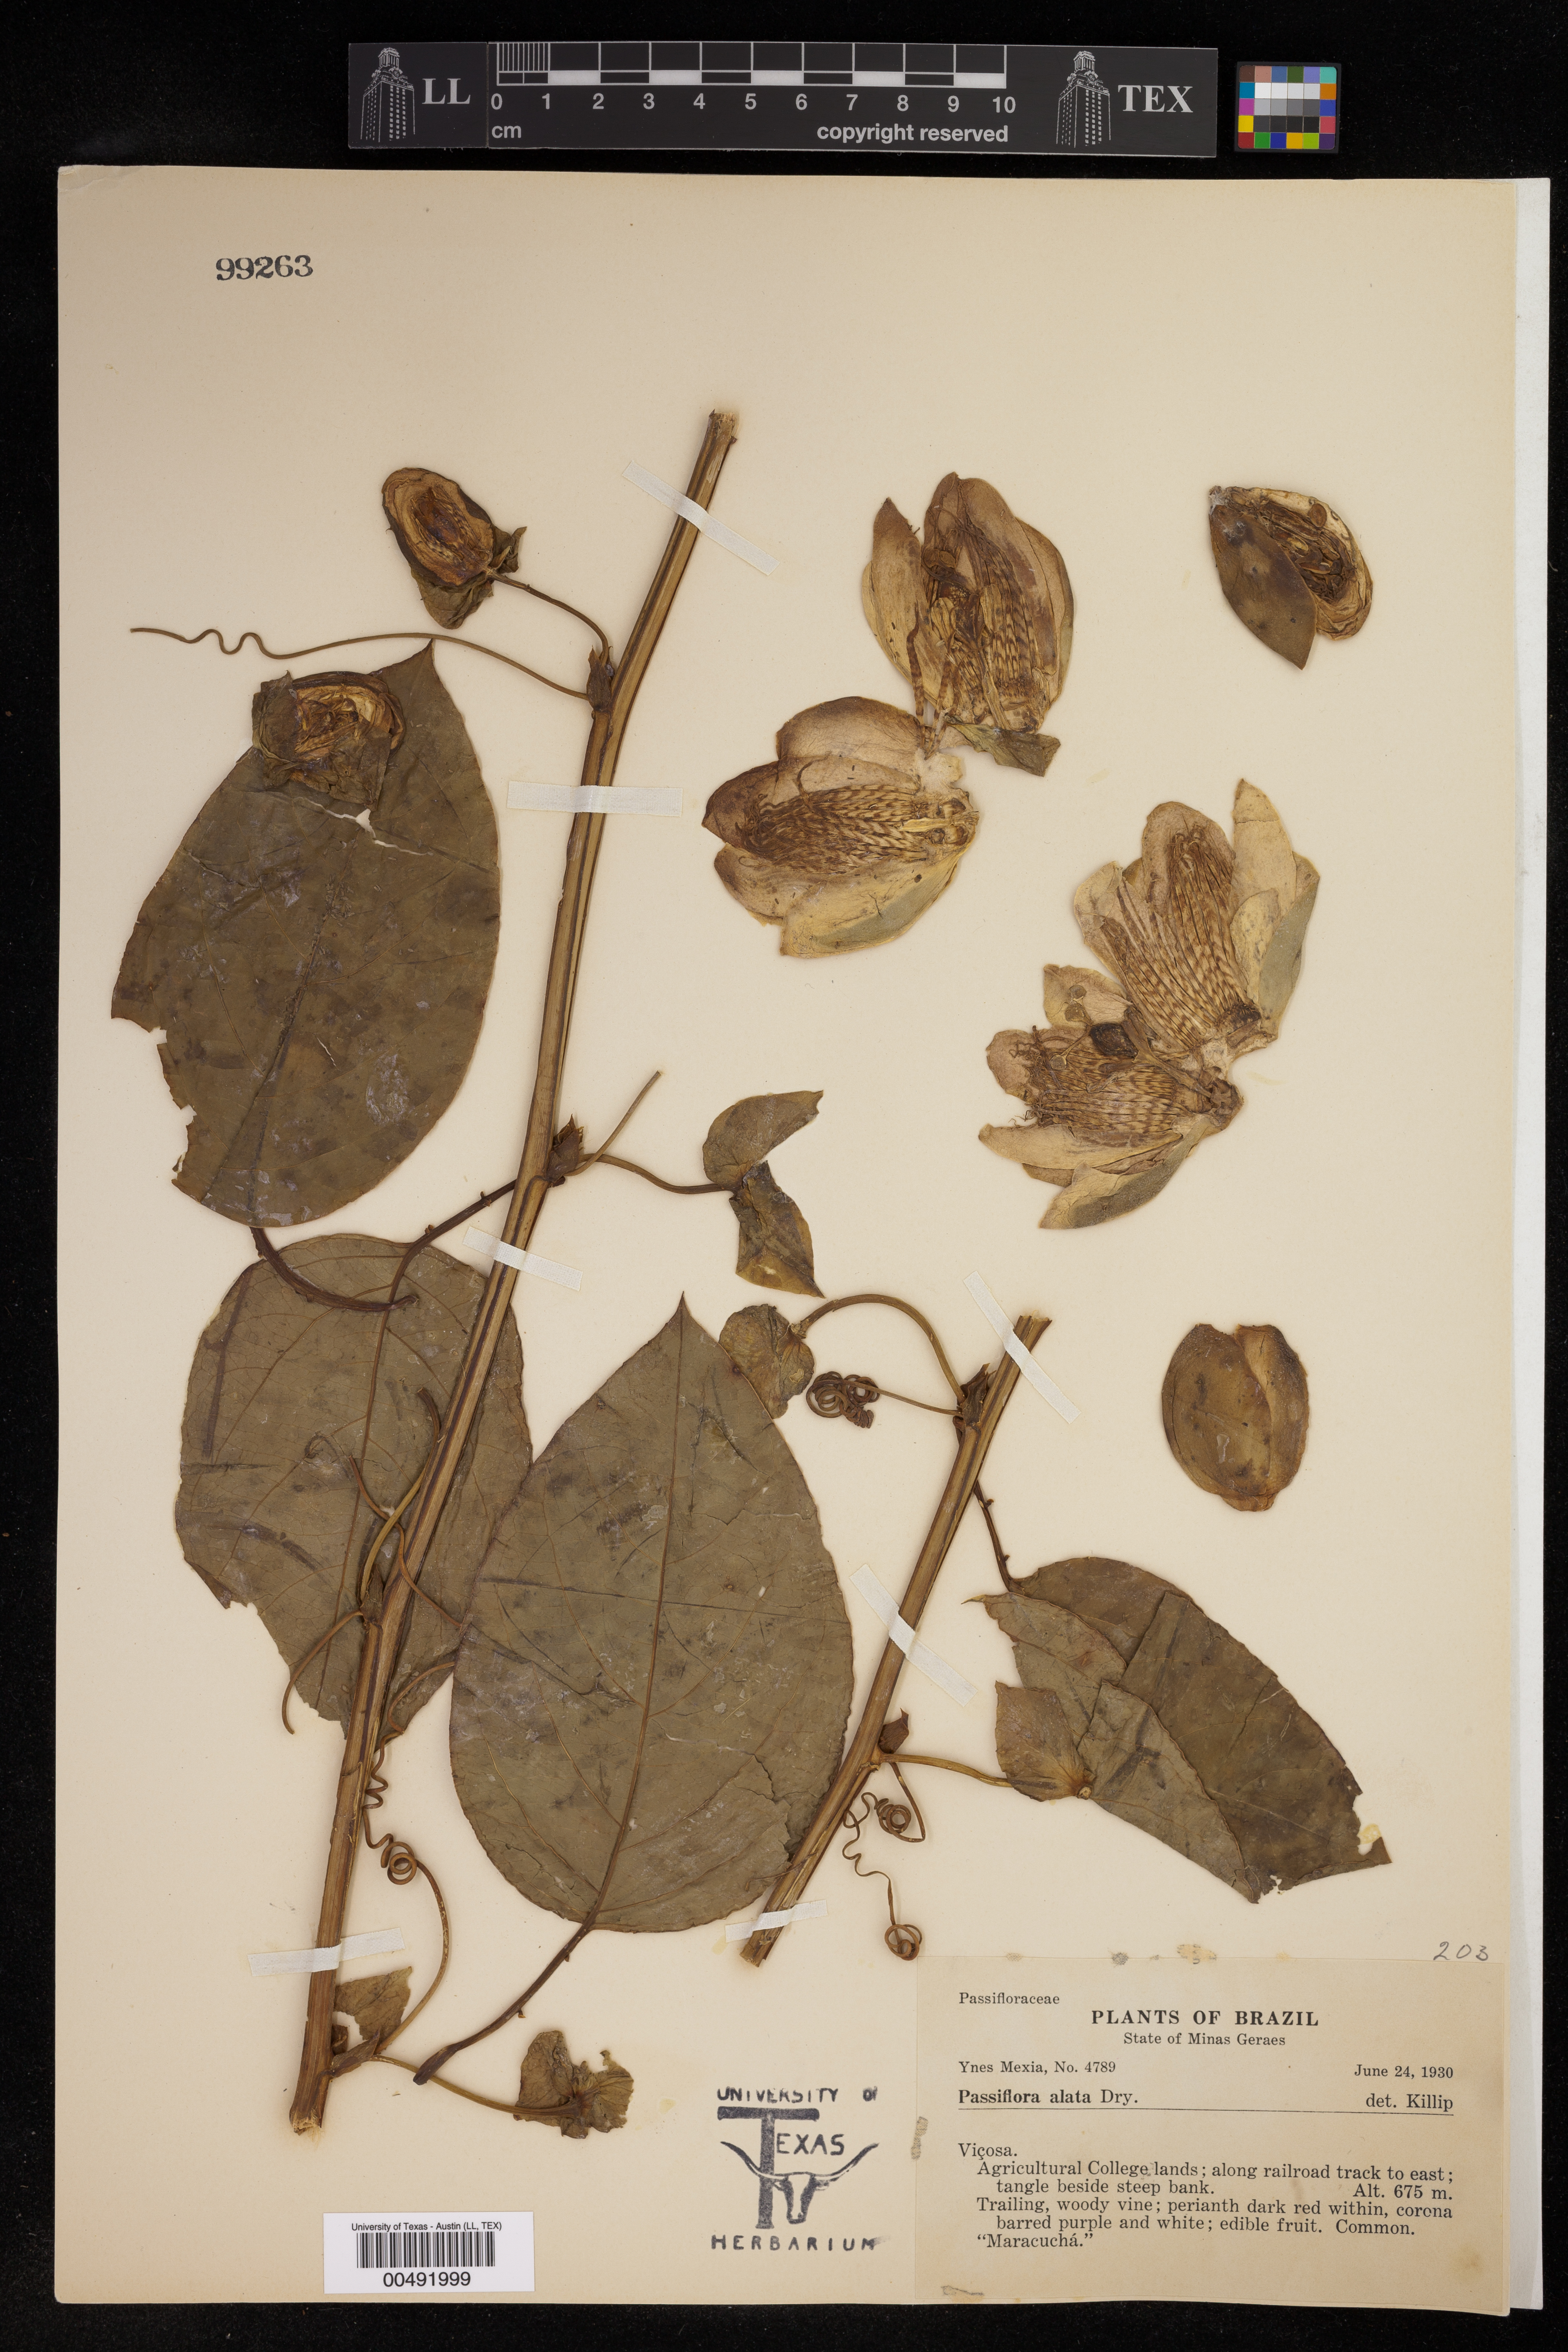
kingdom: Plantae
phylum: Tracheophyta
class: Magnoliopsida
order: Malpighiales
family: Passifloraceae
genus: Passiflora
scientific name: Passiflora
